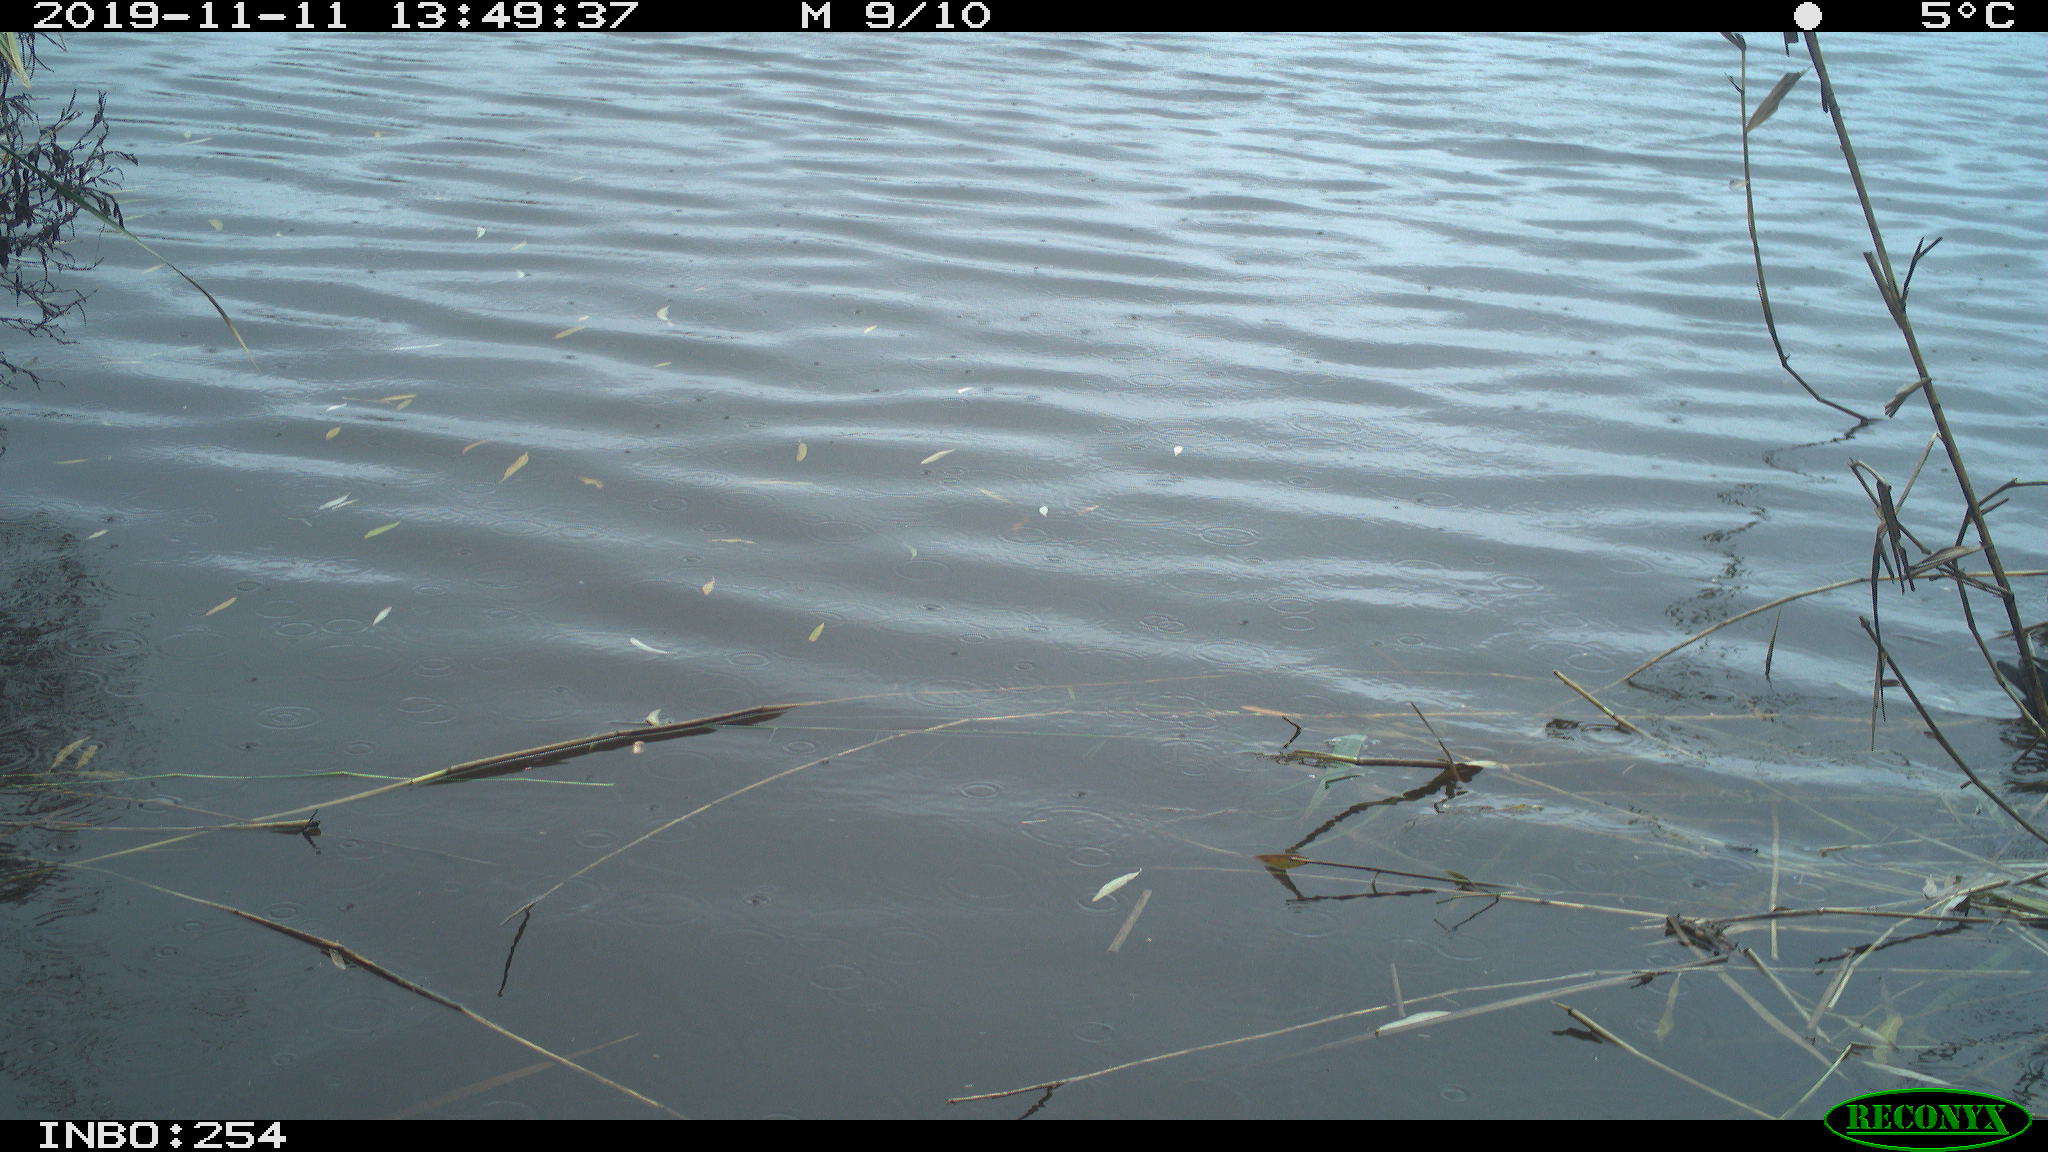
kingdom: Animalia
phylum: Chordata
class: Aves
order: Gruiformes
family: Rallidae
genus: Gallinula
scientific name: Gallinula chloropus
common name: Common moorhen
